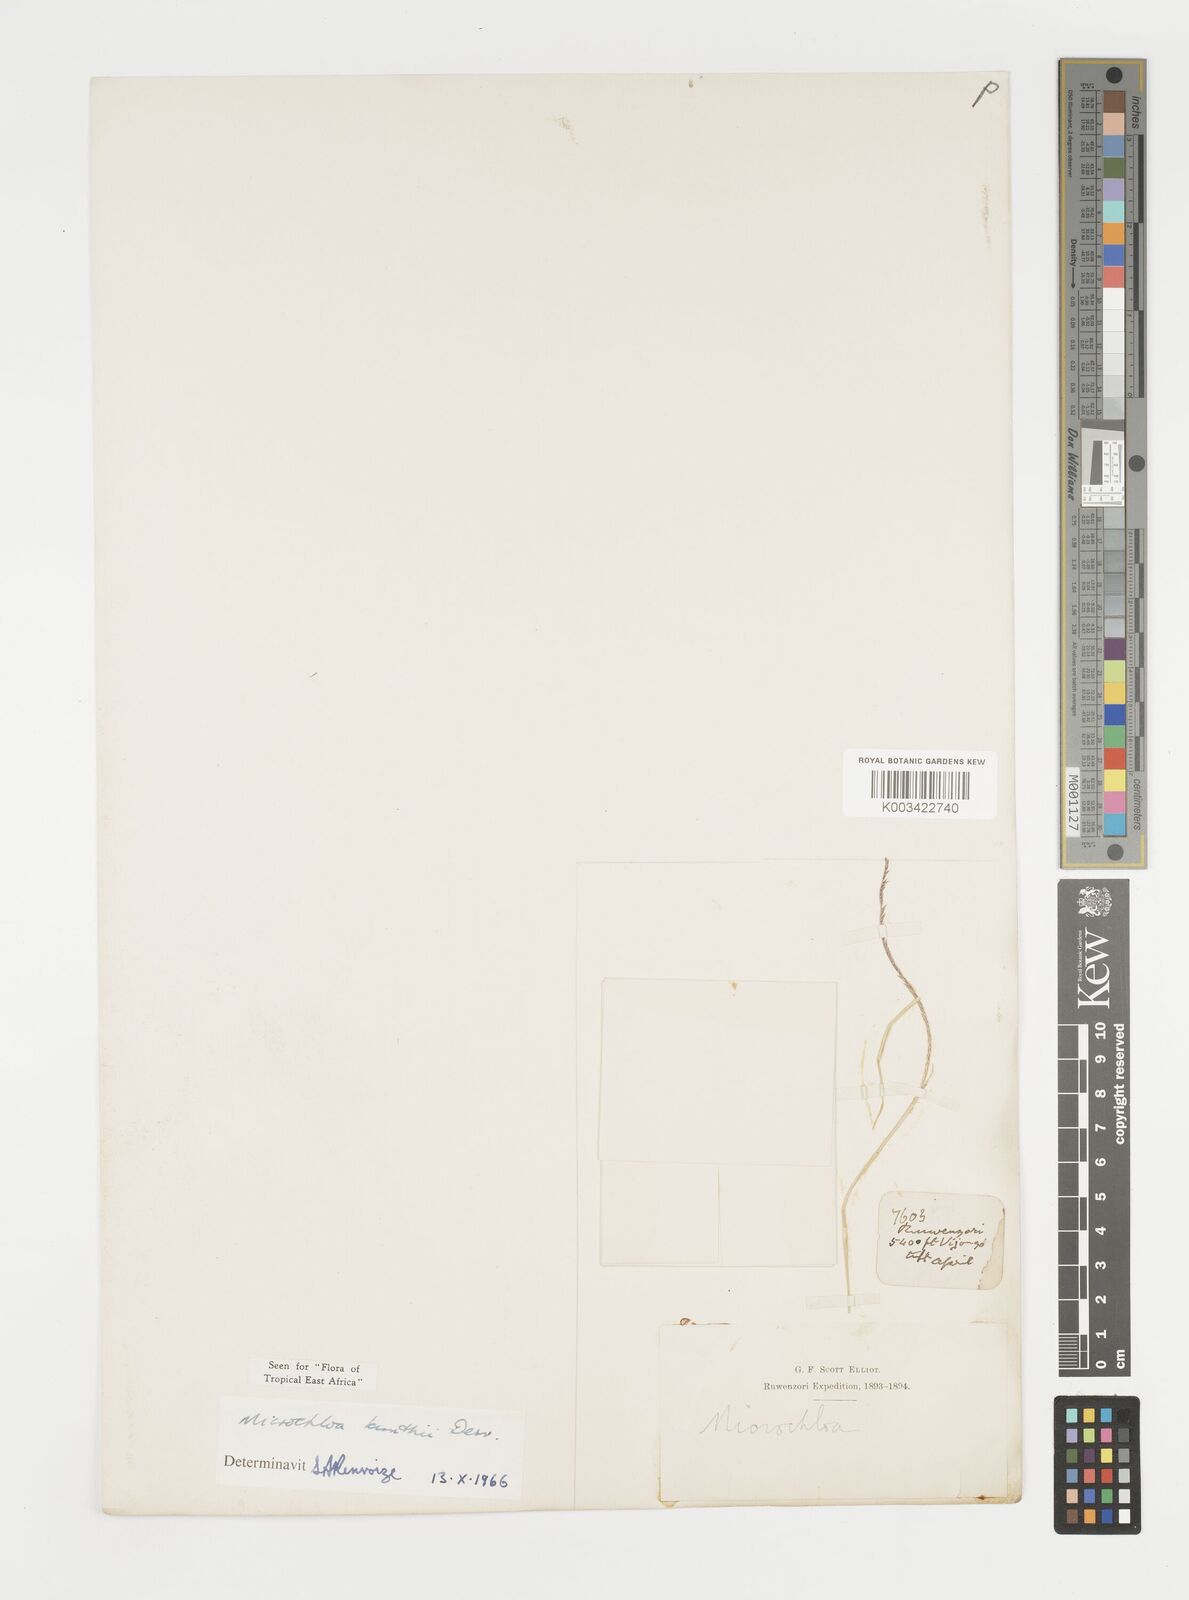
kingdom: Plantae
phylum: Tracheophyta
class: Liliopsida
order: Poales
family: Poaceae
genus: Microchloa
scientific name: Microchloa kunthii
